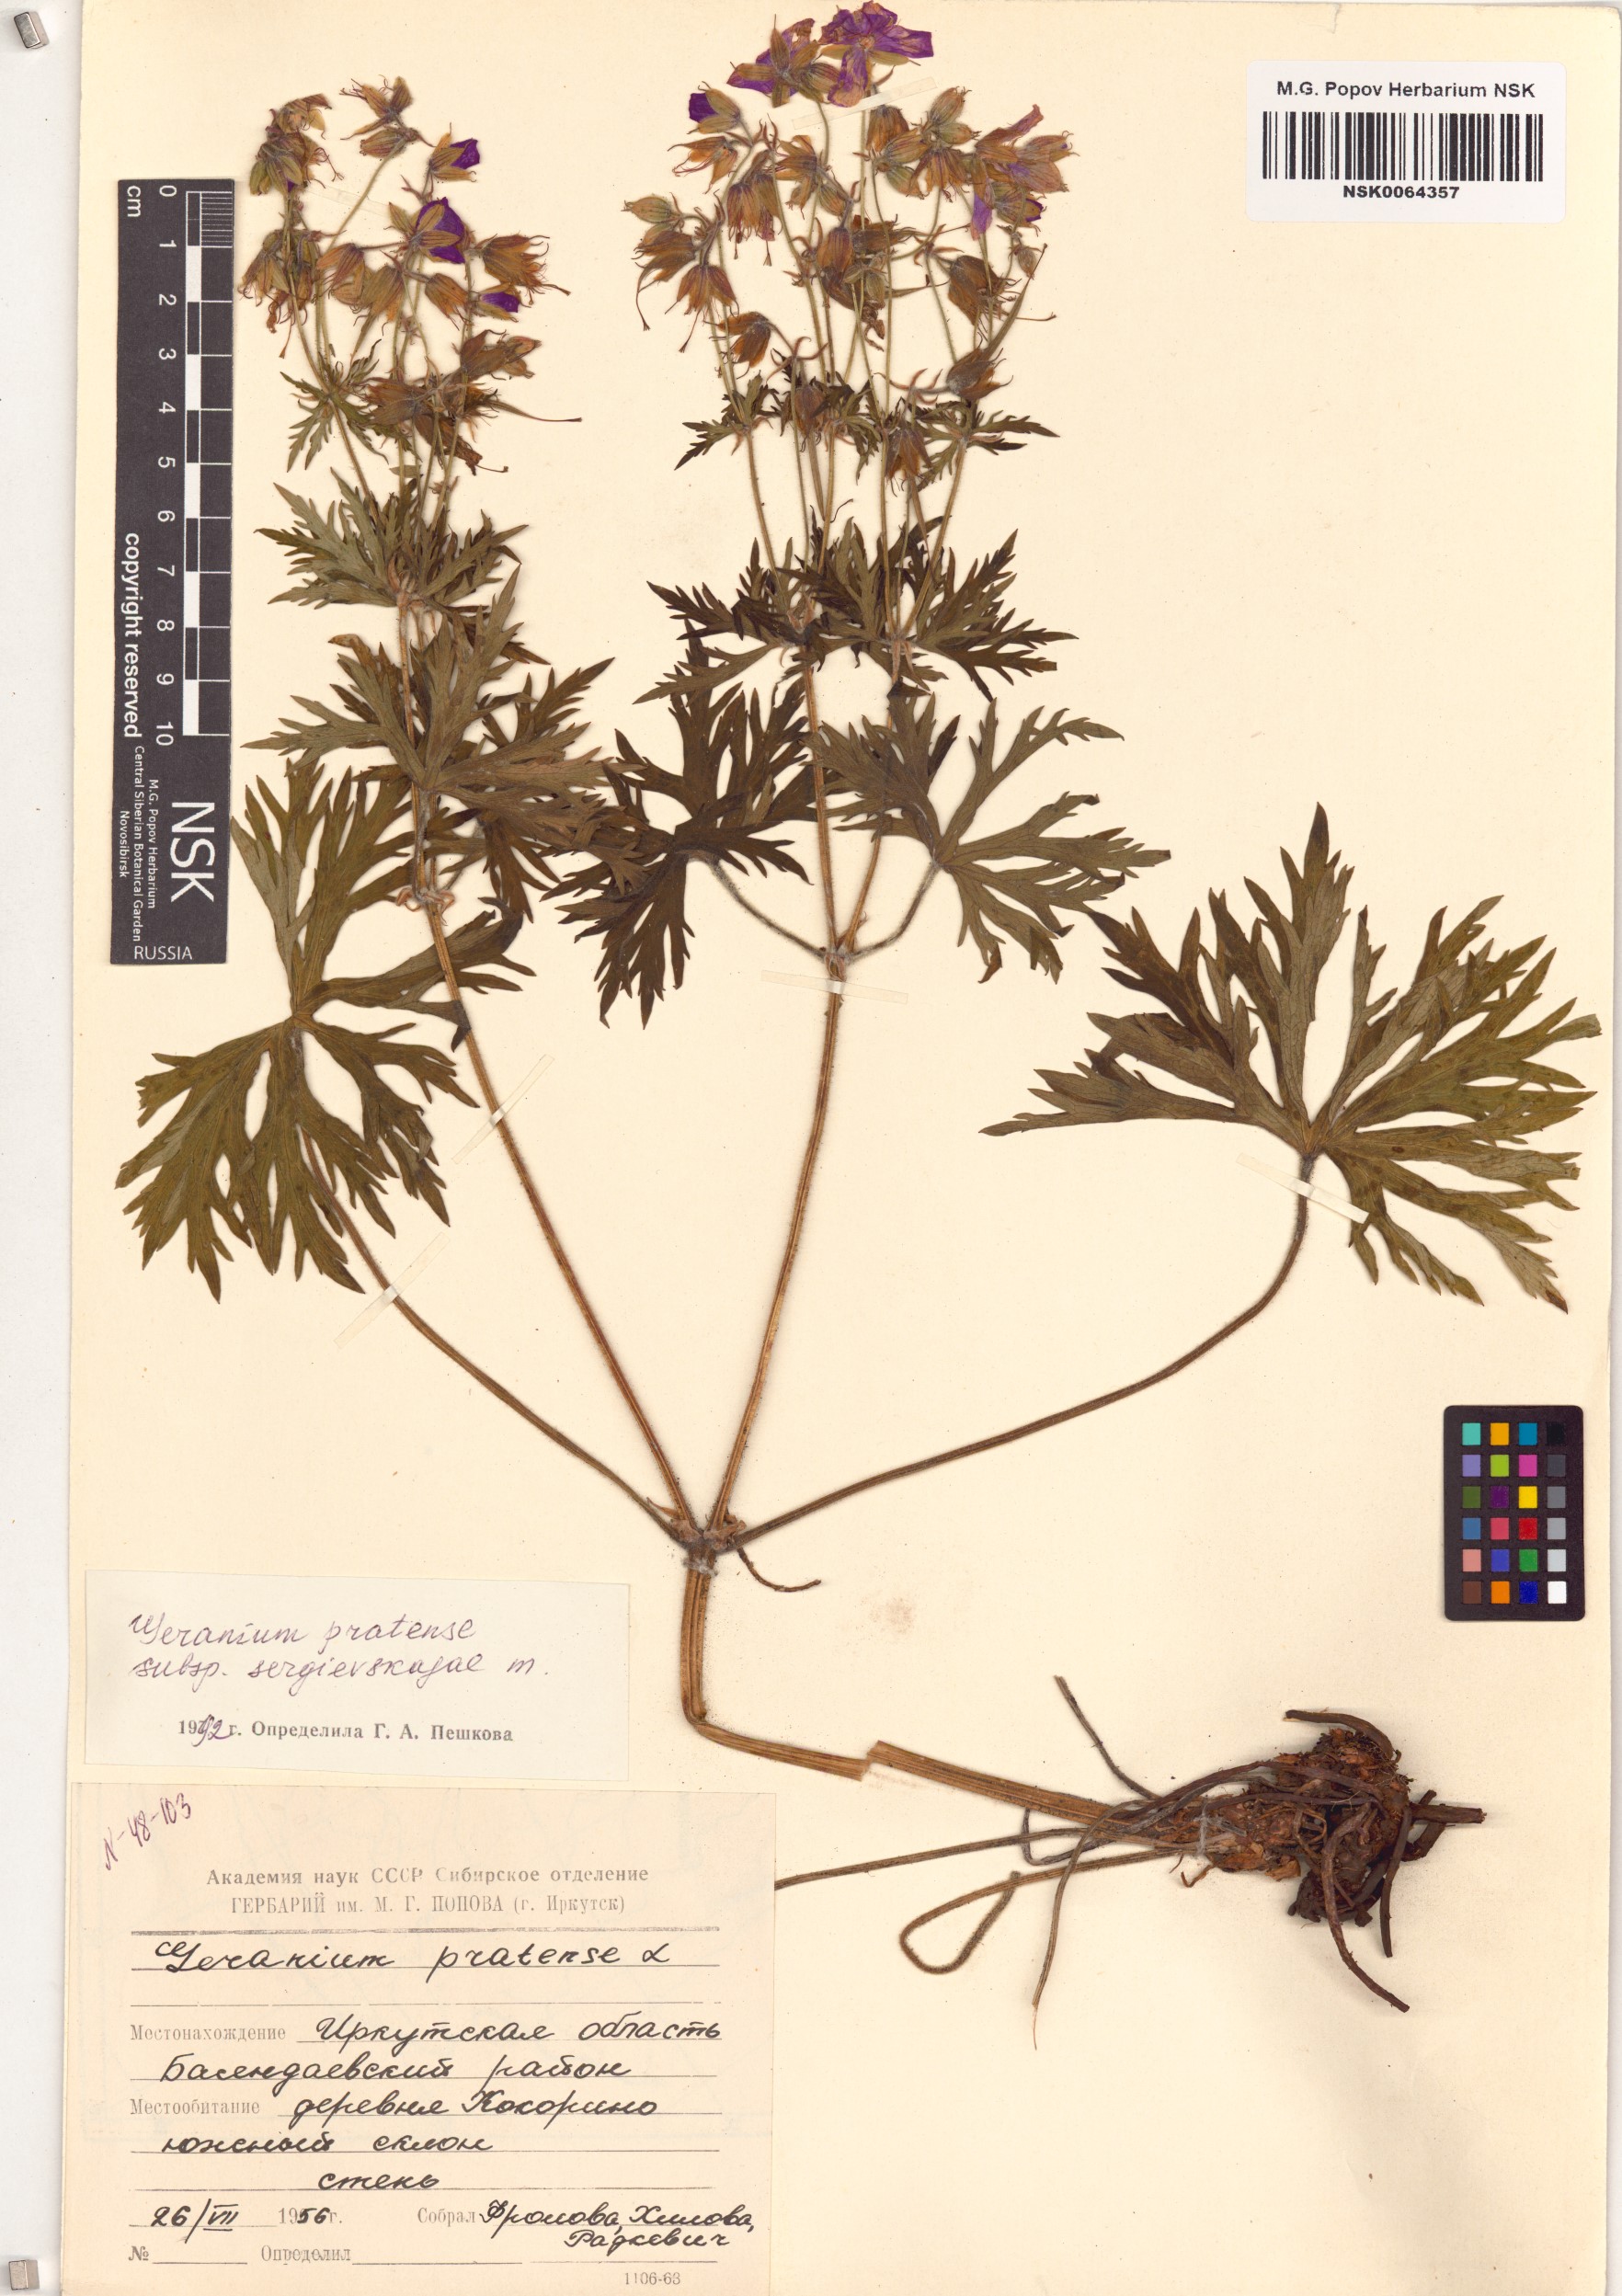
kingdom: Plantae
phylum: Tracheophyta
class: Magnoliopsida
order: Geraniales
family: Geraniaceae
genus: Geranium
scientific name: Geranium pratense
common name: Meadow crane's-bill
